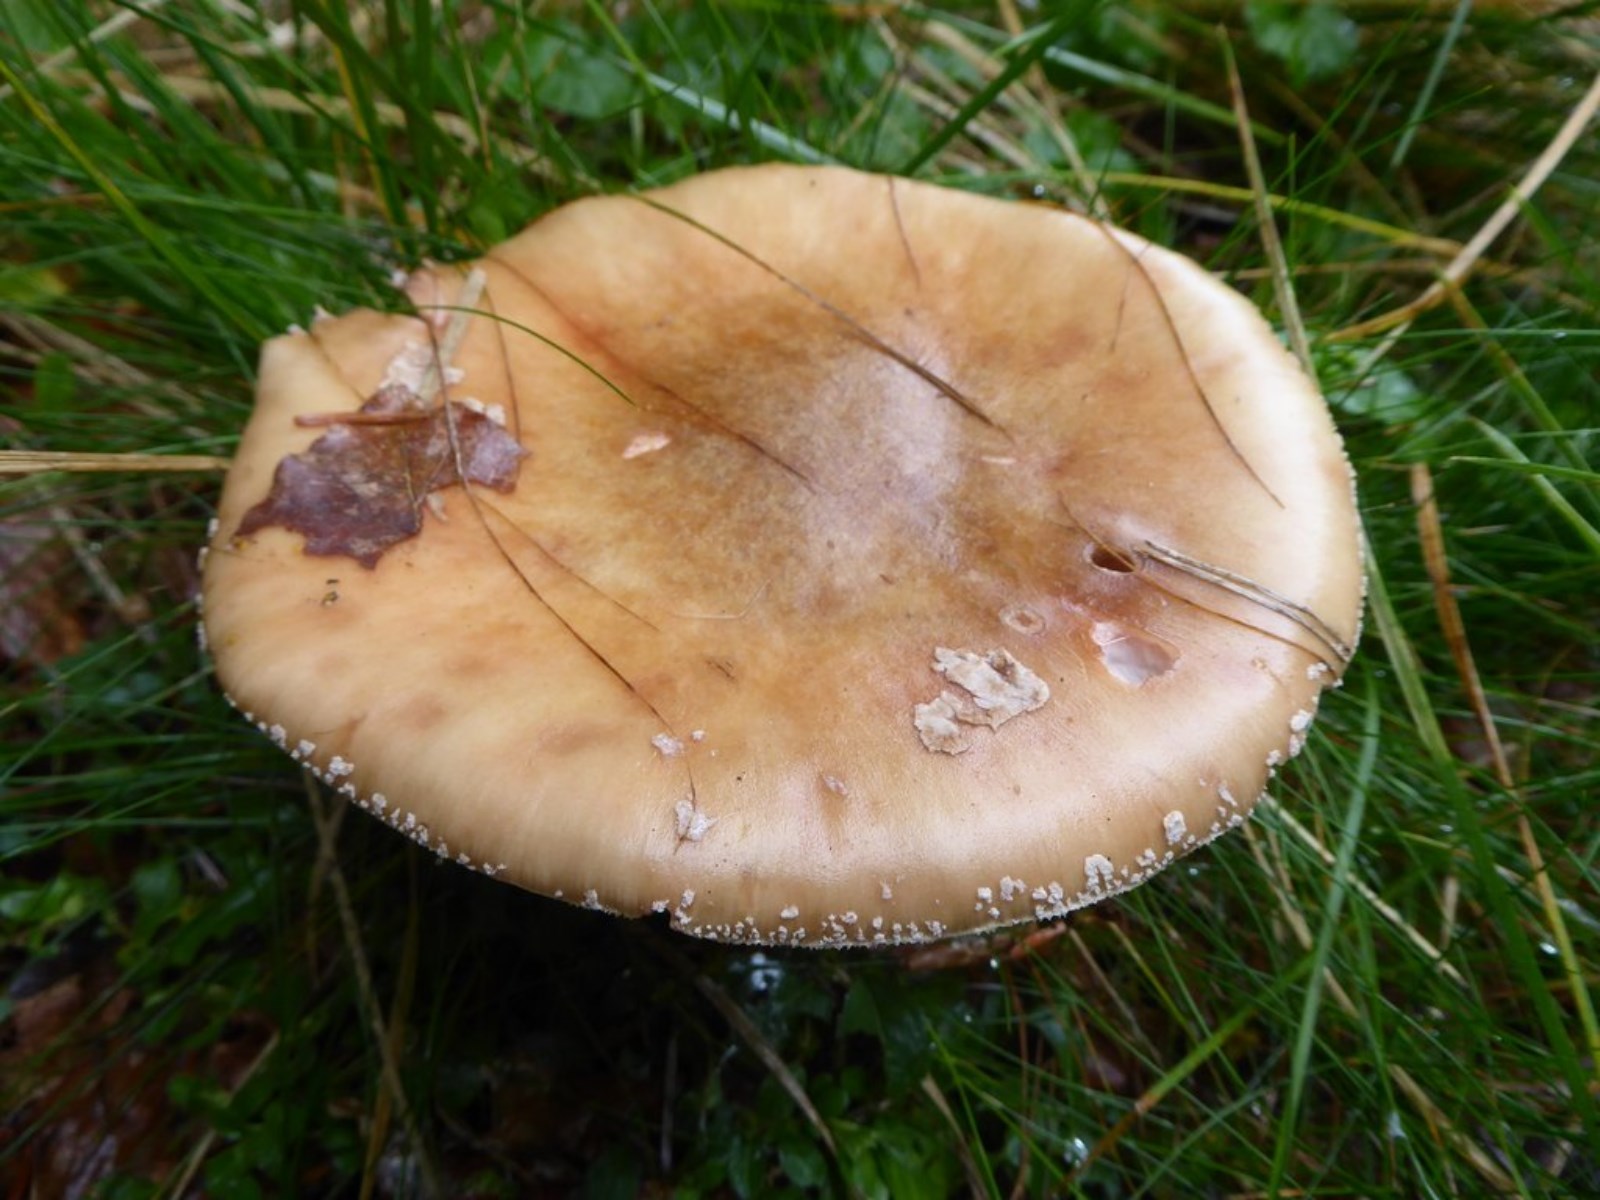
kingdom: Fungi
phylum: Basidiomycota
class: Agaricomycetes
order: Agaricales
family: Amanitaceae
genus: Amanita
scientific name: Amanita rubescens
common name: rødmende fluesvamp
